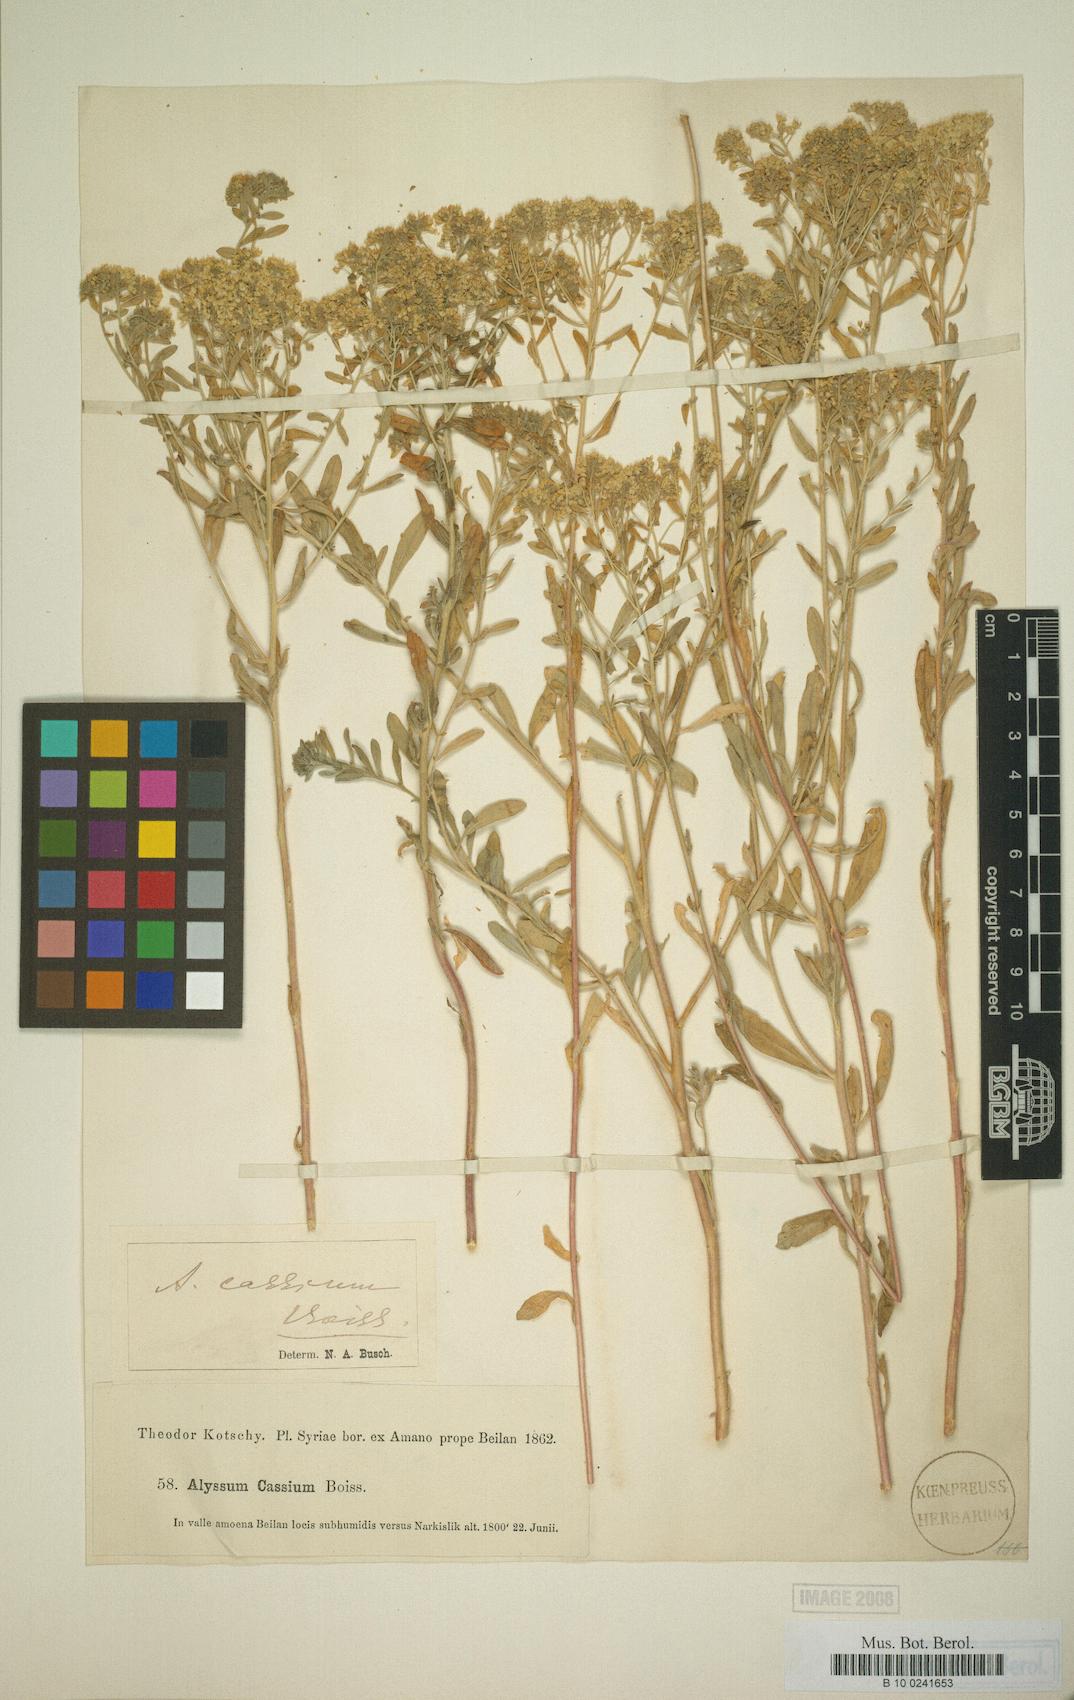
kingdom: Plantae
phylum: Tracheophyta
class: Magnoliopsida
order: Brassicales
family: Brassicaceae
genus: Odontarrhena
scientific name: Odontarrhena cassia
